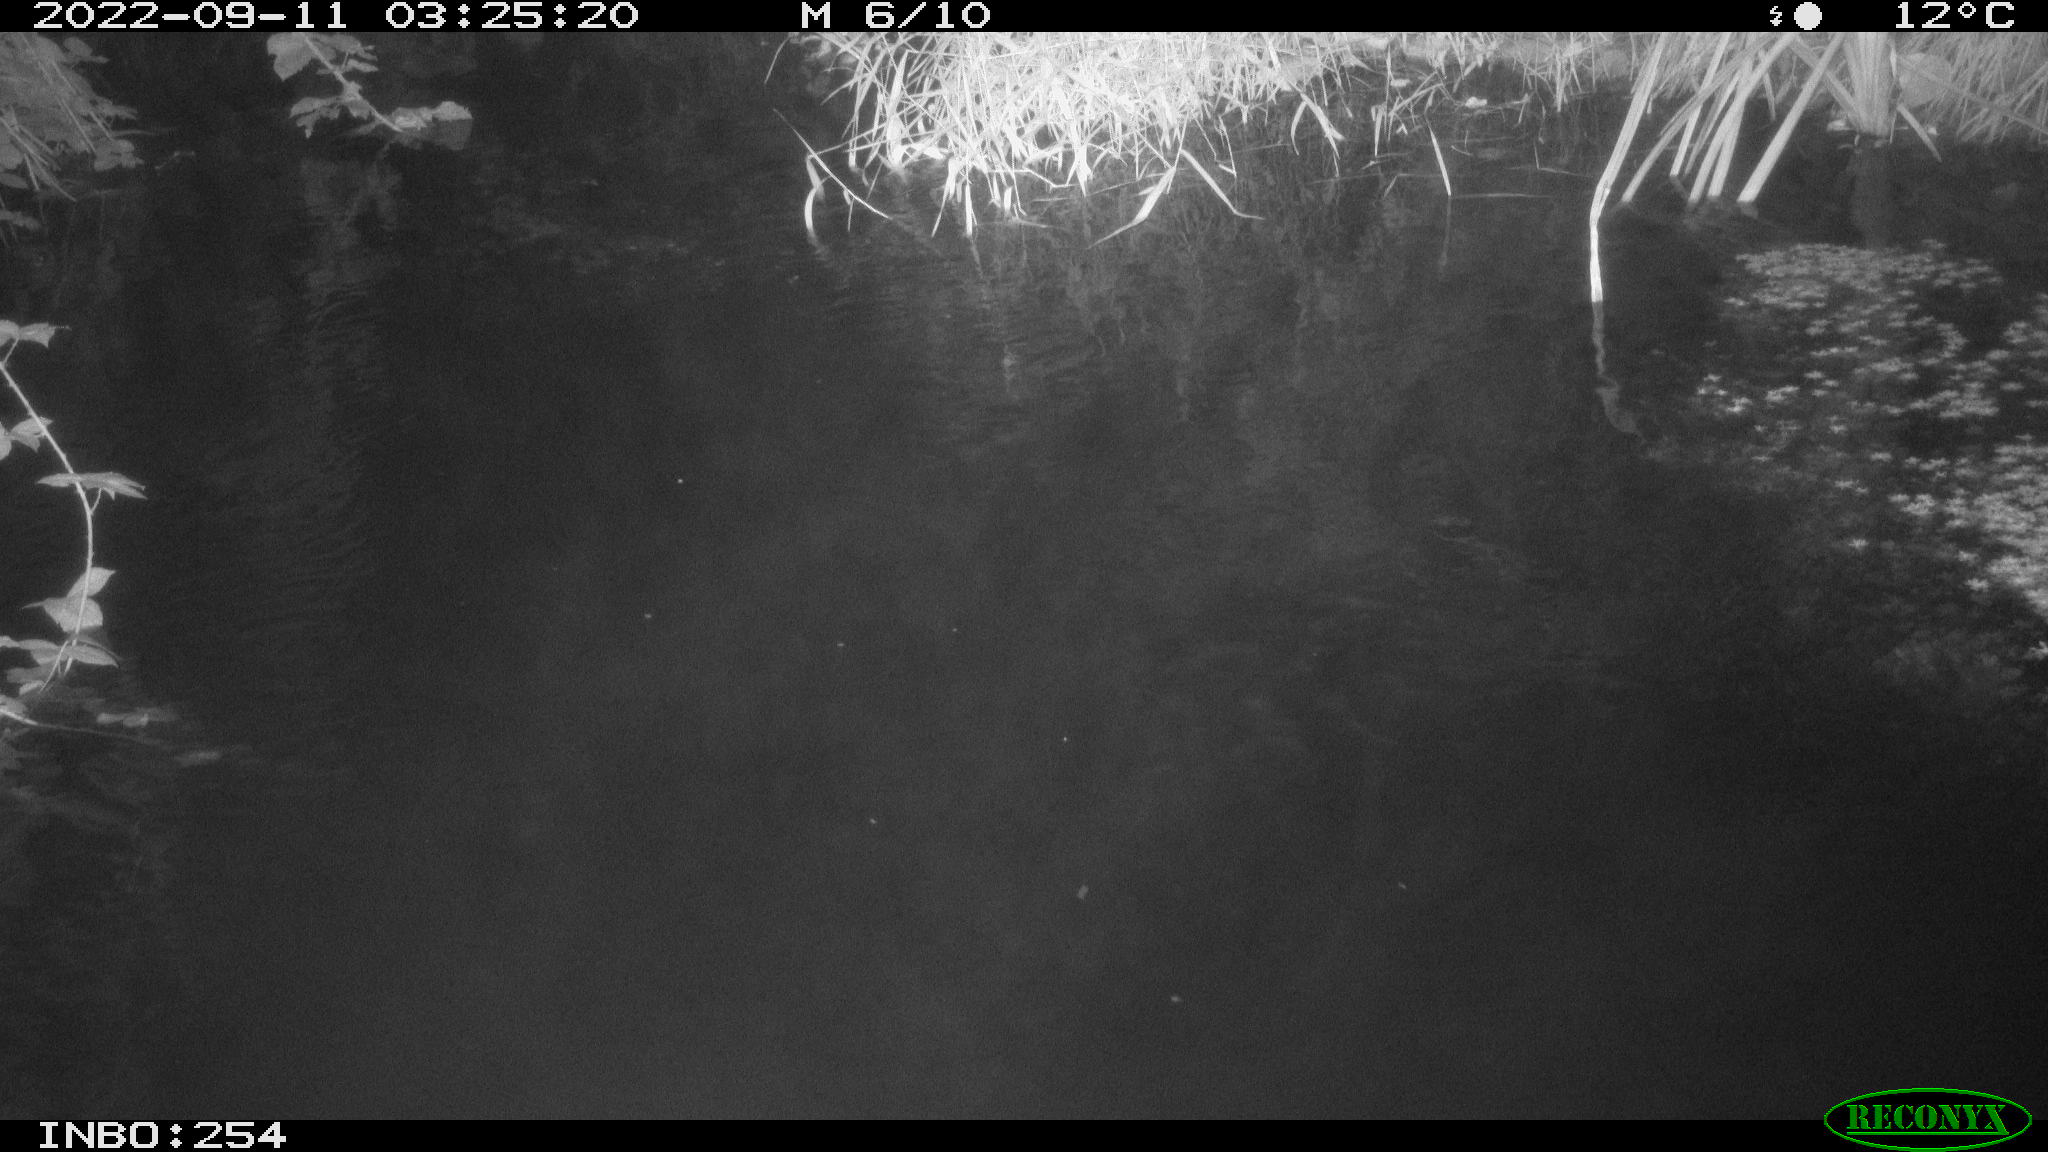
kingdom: Animalia
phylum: Chordata
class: Aves
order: Anseriformes
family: Anatidae
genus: Anas
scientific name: Anas
